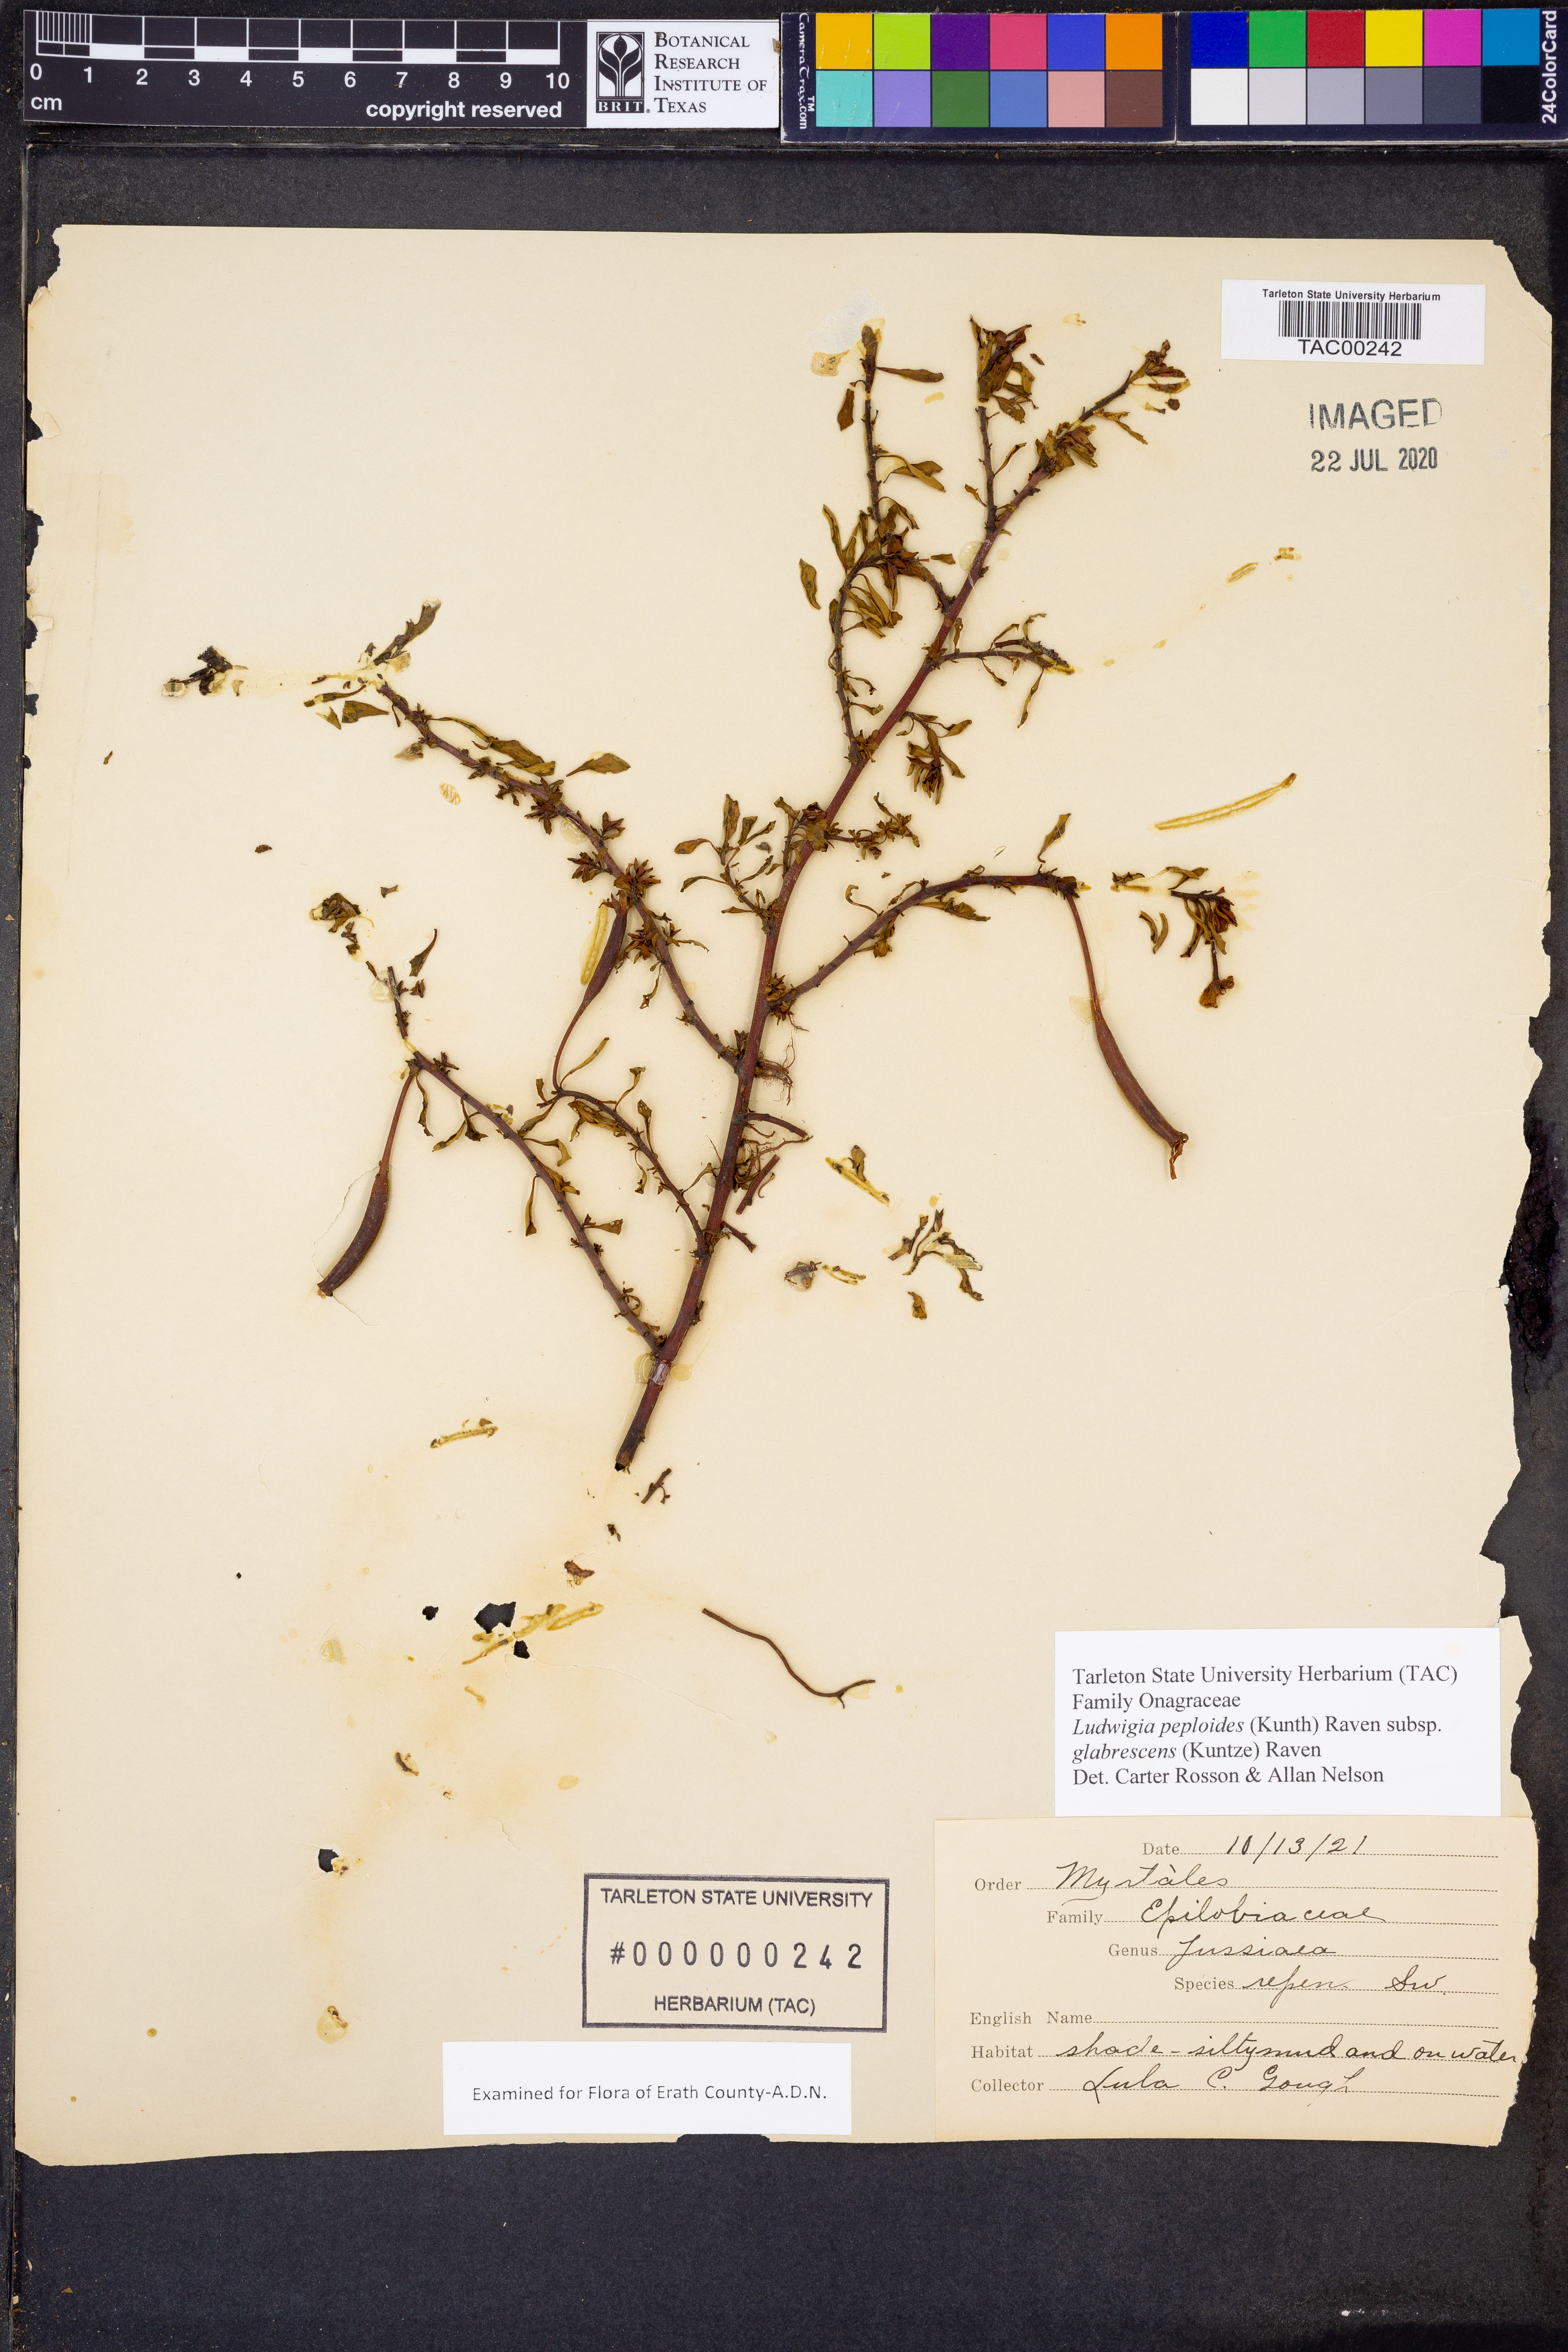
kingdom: Plantae
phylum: Tracheophyta
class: Magnoliopsida
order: Myrtales
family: Onagraceae
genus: Ludwigia
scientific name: Ludwigia peploides
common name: Floating primrose-willow
